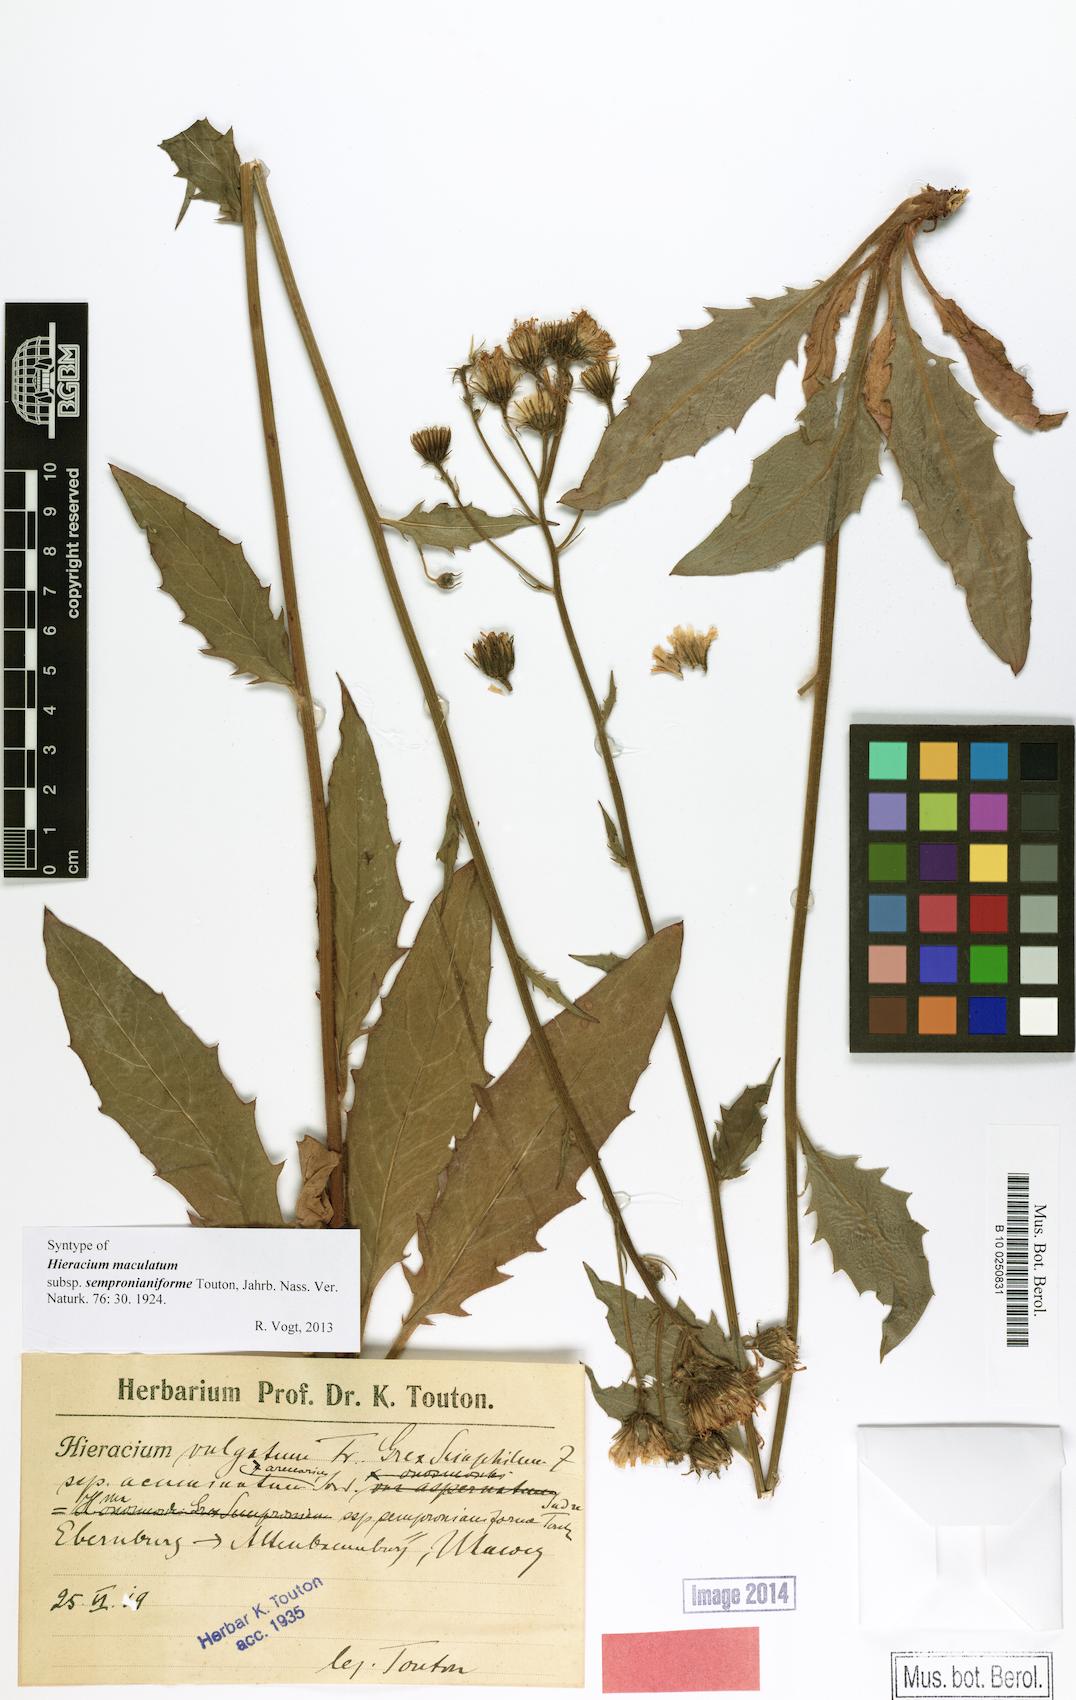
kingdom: Plantae
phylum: Tracheophyta
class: Magnoliopsida
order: Asterales
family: Asteraceae
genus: Hieracium
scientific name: Hieracium maculatum
